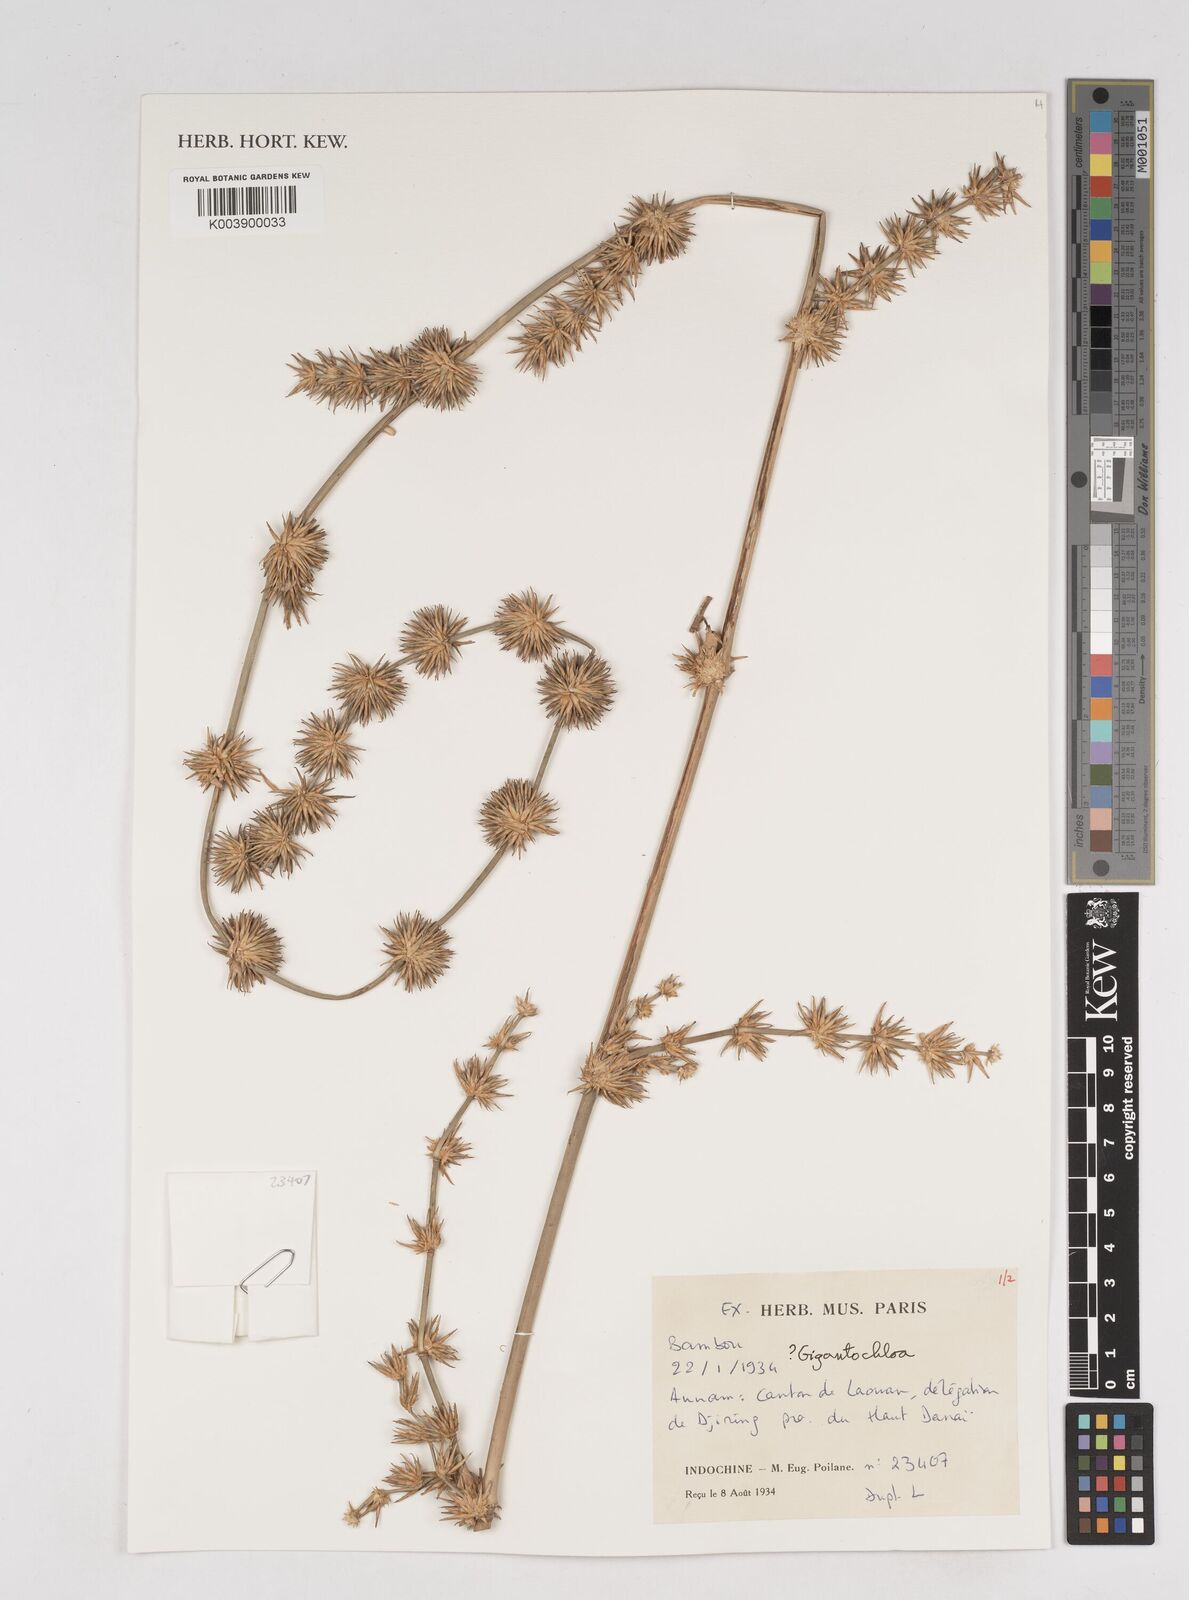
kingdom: Plantae
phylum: Tracheophyta
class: Liliopsida
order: Poales
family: Poaceae
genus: Gigantochloa
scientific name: Gigantochloa
